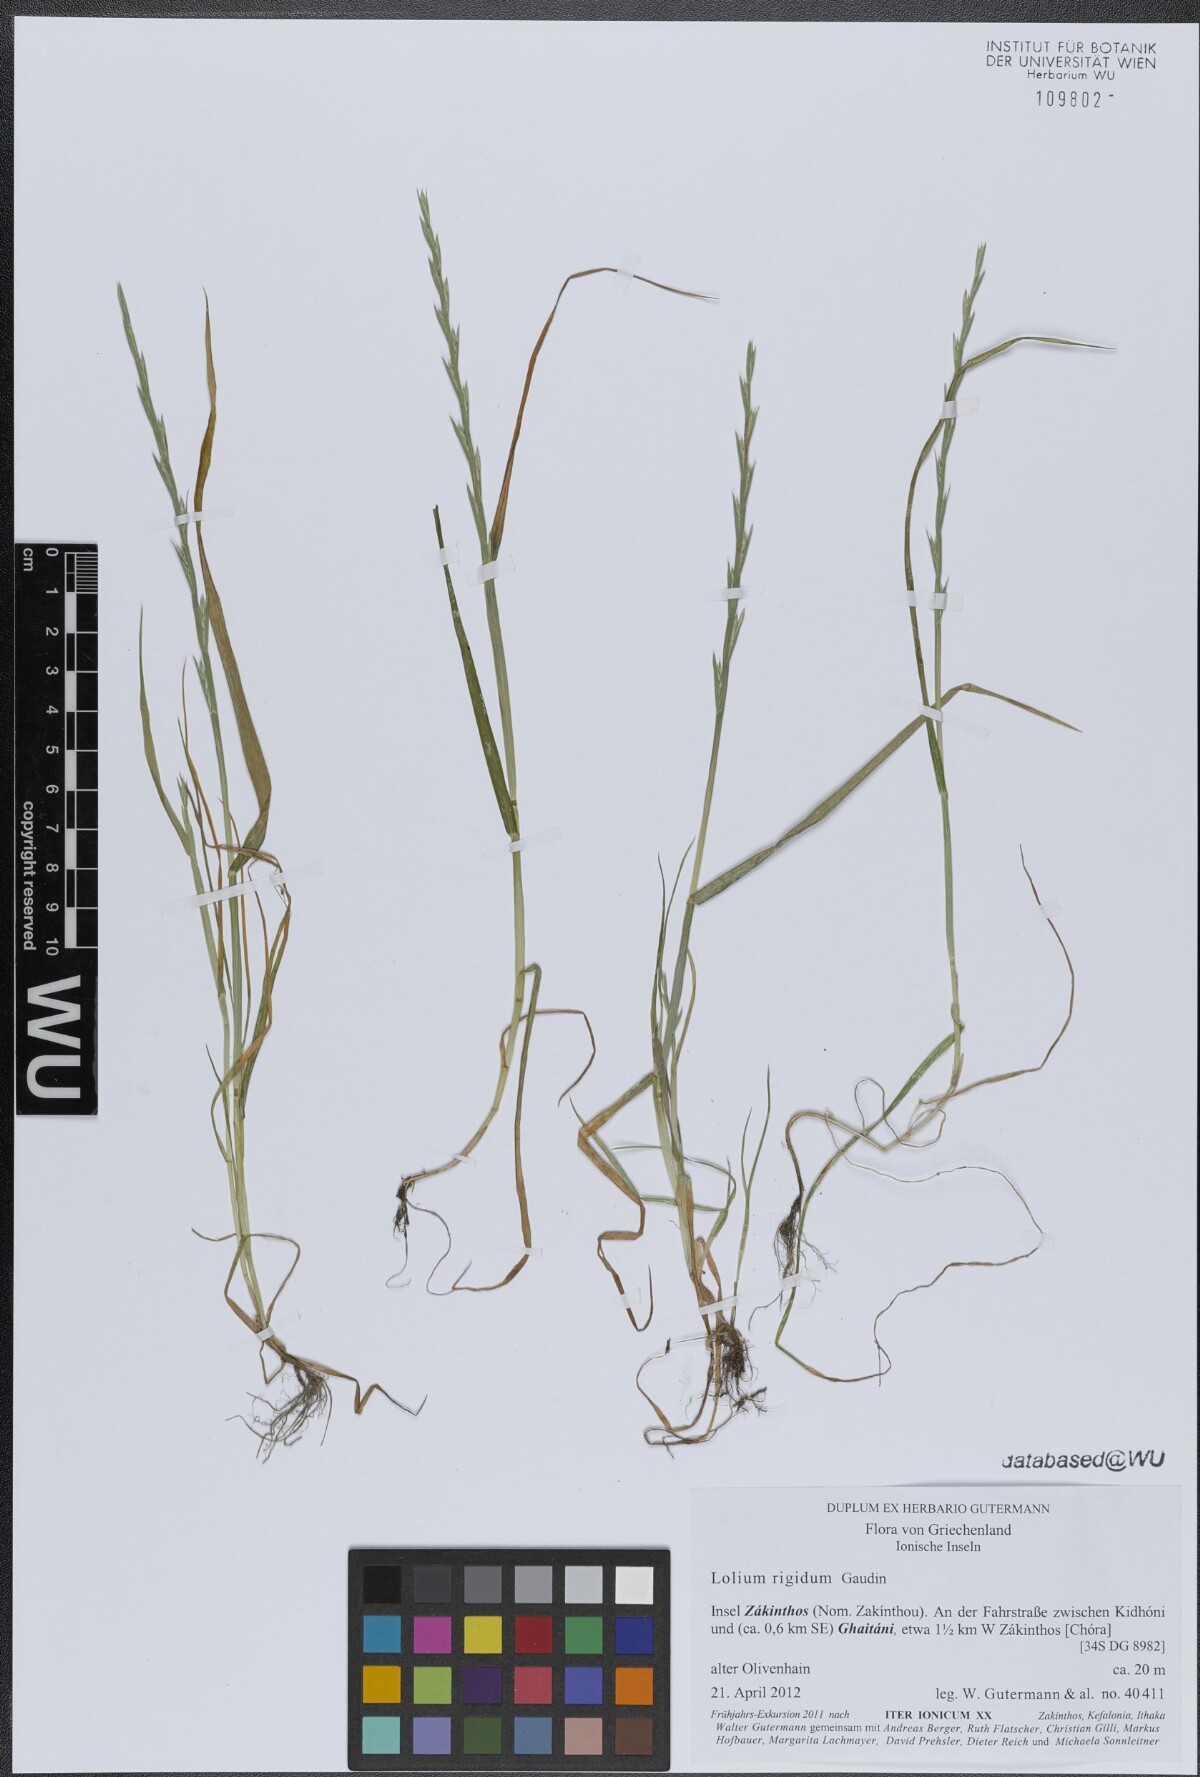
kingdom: Plantae
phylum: Tracheophyta
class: Liliopsida
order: Poales
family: Poaceae
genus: Lolium
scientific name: Lolium rigidum
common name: Wimmera ryegrass
